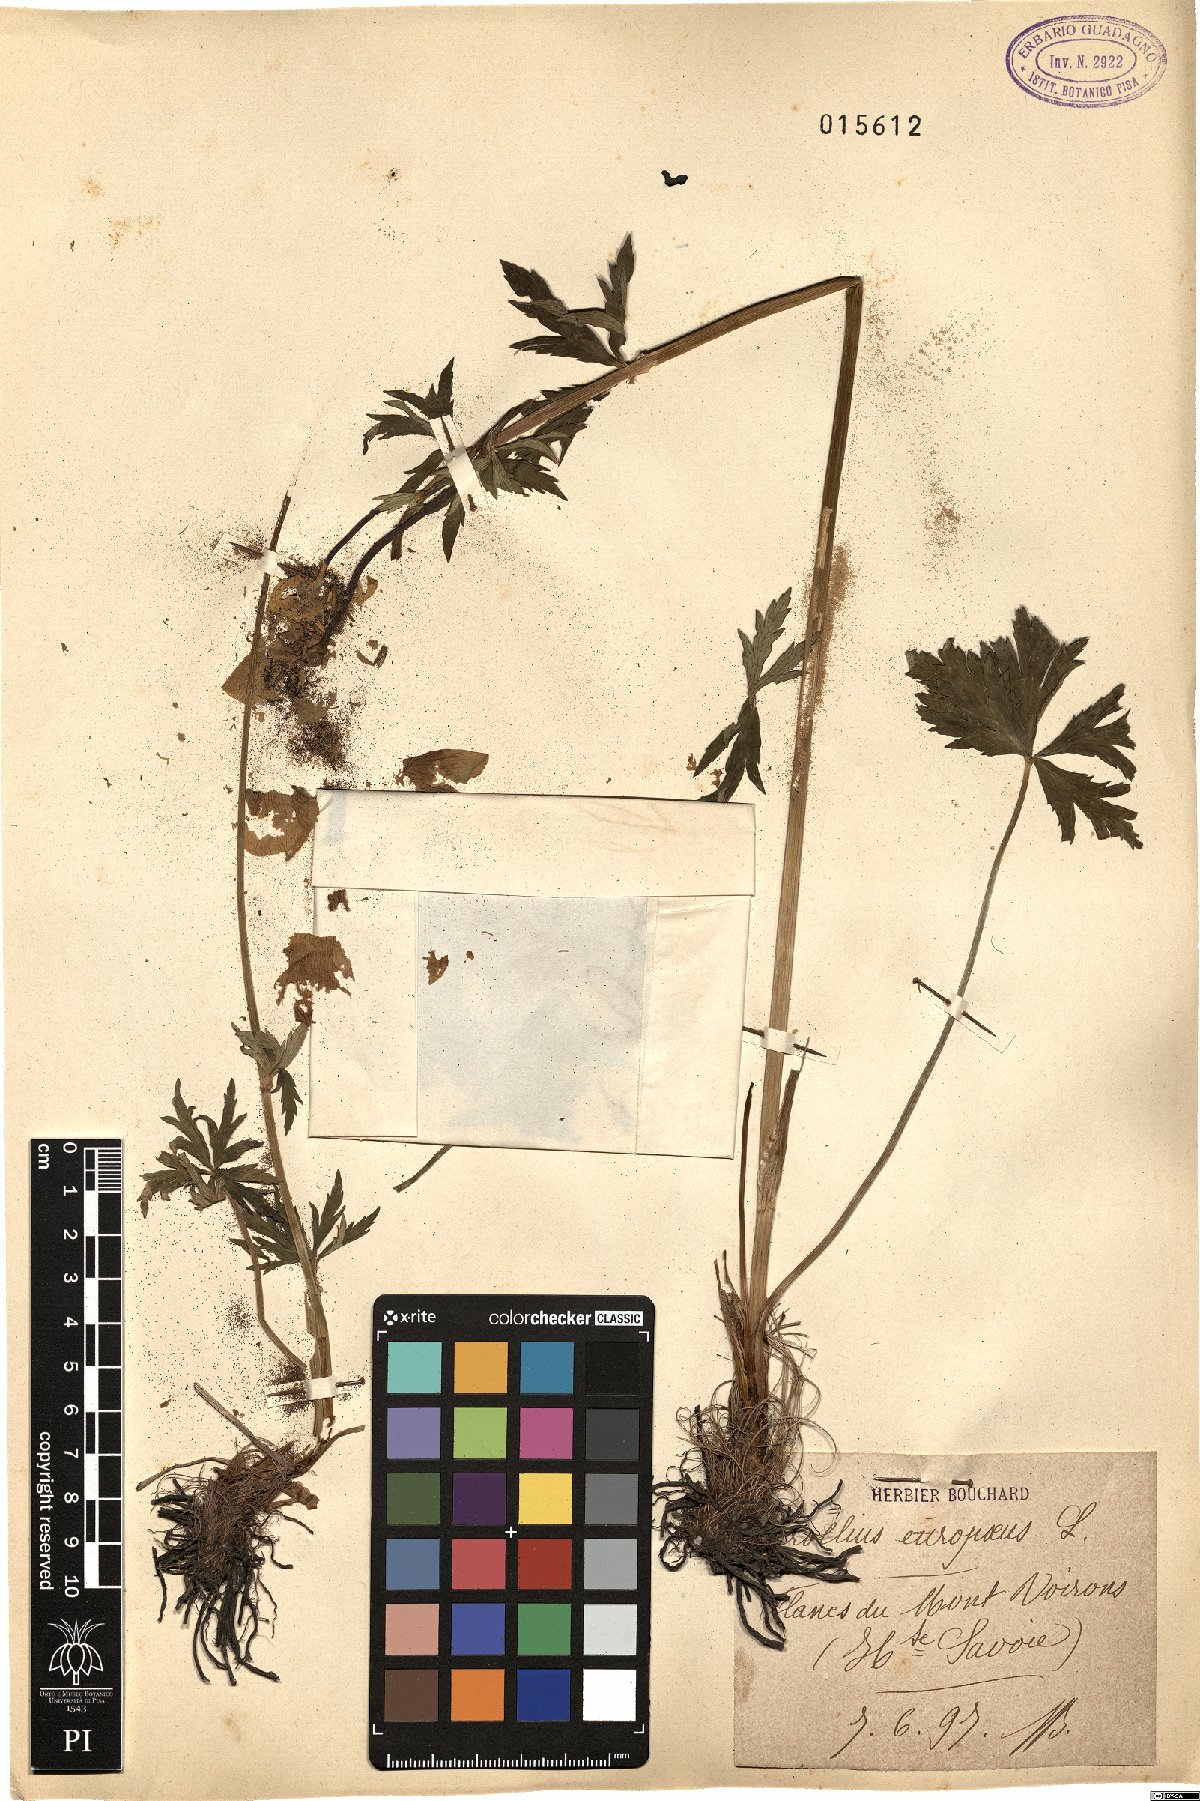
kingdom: Plantae
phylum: Tracheophyta
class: Magnoliopsida
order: Ranunculales
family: Ranunculaceae
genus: Trollius
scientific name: Trollius europaeus
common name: European globeflower
